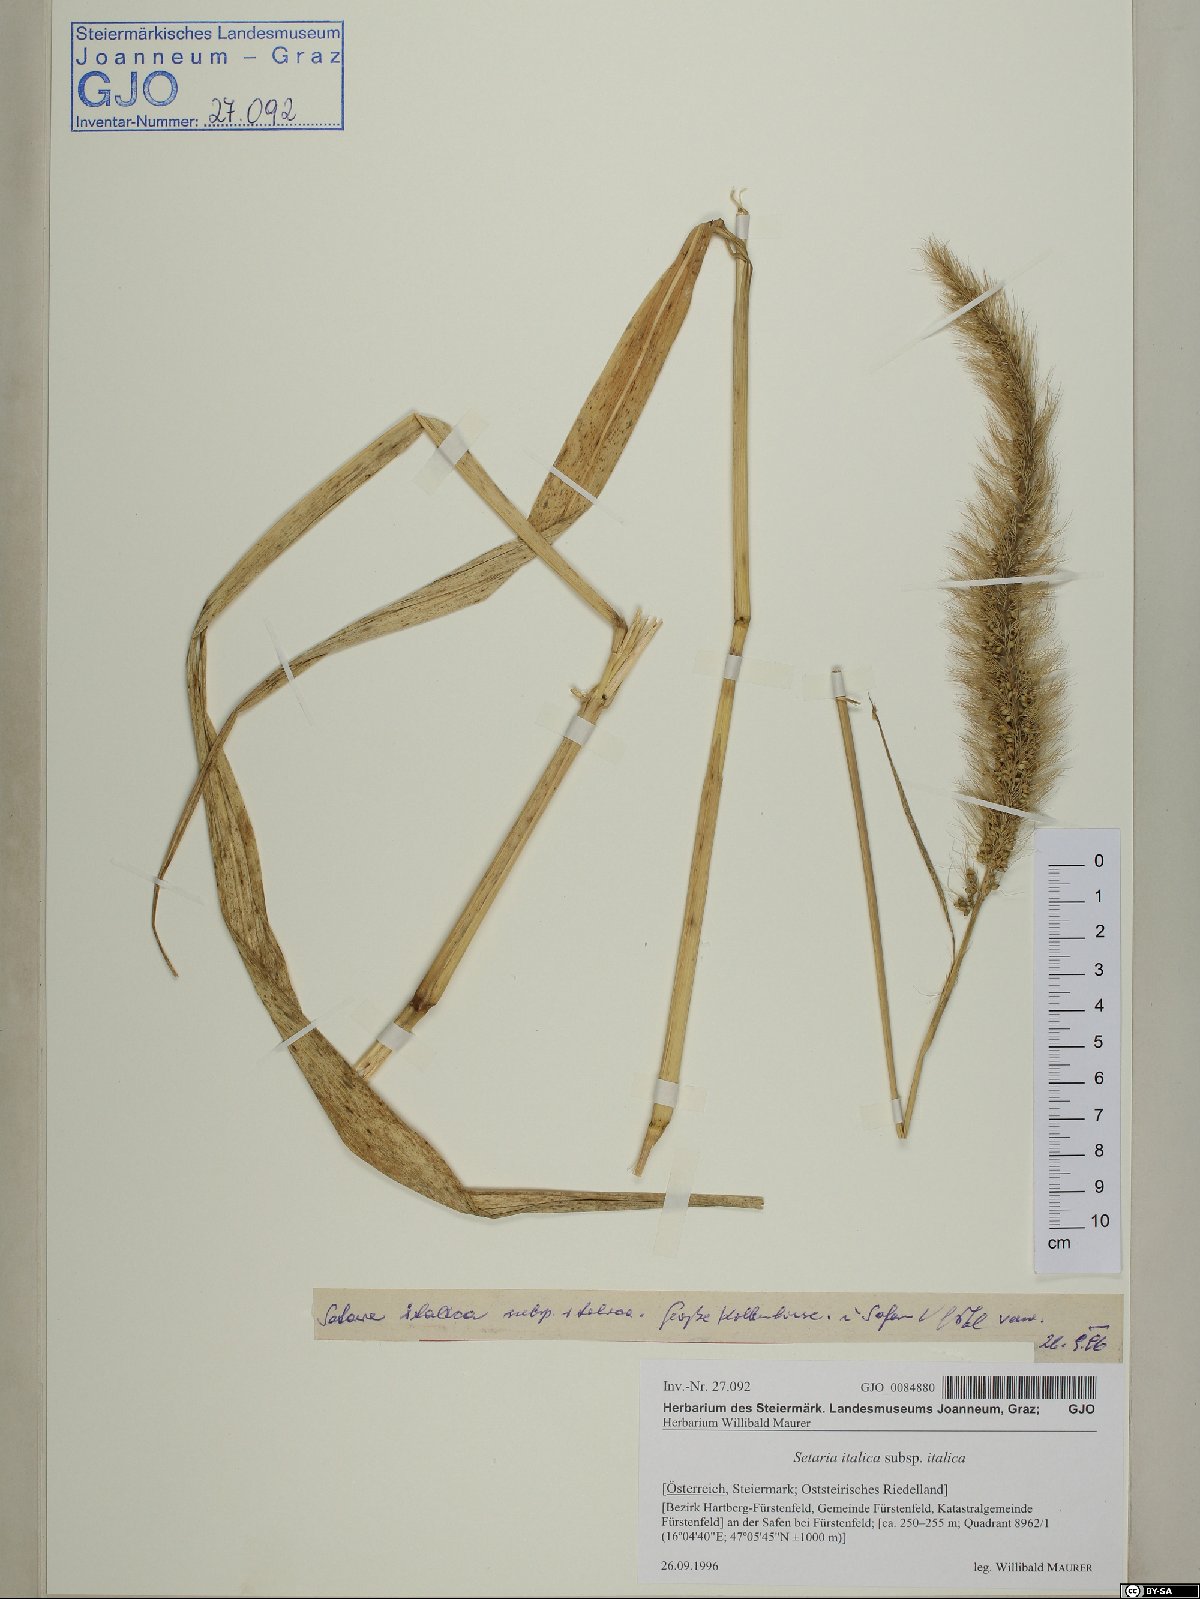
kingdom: Plantae
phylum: Tracheophyta
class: Liliopsida
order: Poales
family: Poaceae
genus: Setaria
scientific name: Setaria italica
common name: Foxtail bristle-grass
